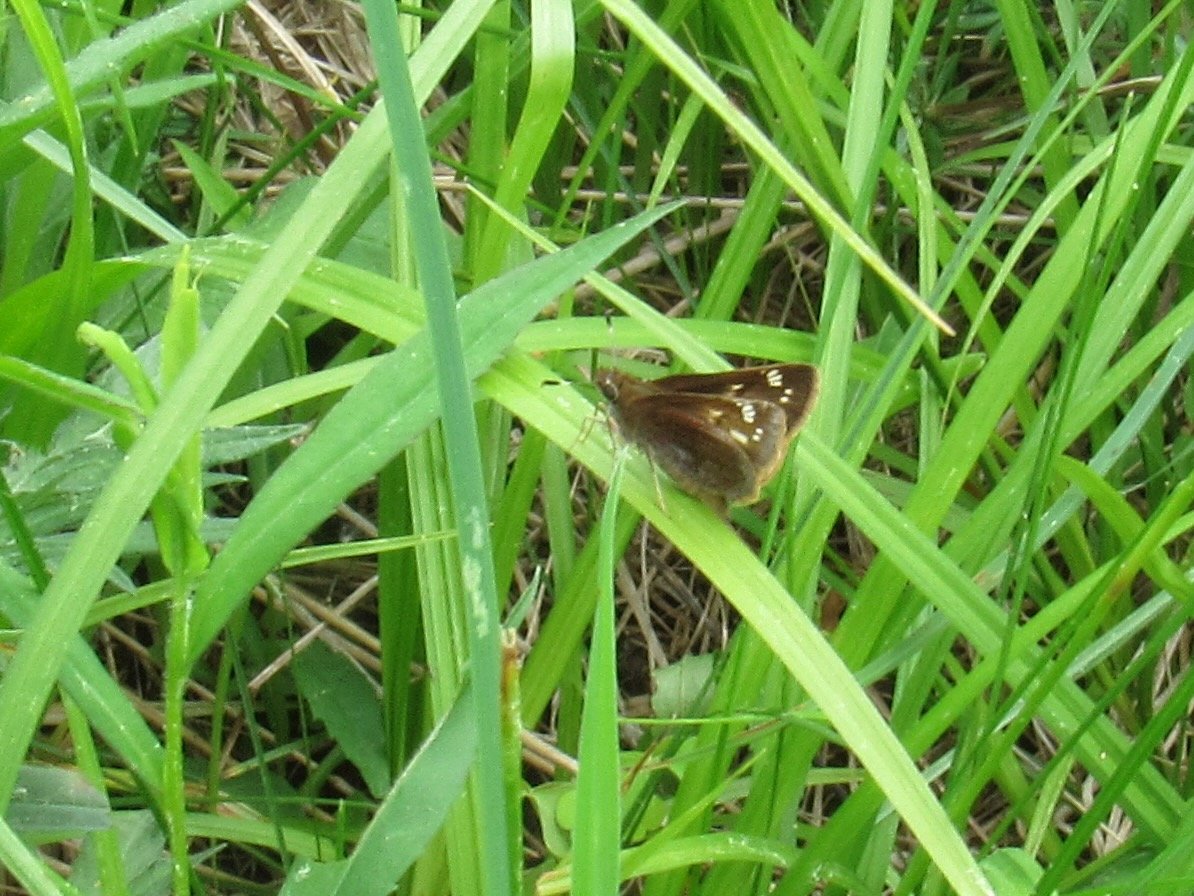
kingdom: Animalia
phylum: Arthropoda
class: Insecta
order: Lepidoptera
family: Hesperiidae
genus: Lon
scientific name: Lon hobomok
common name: Hobomok Skipper
